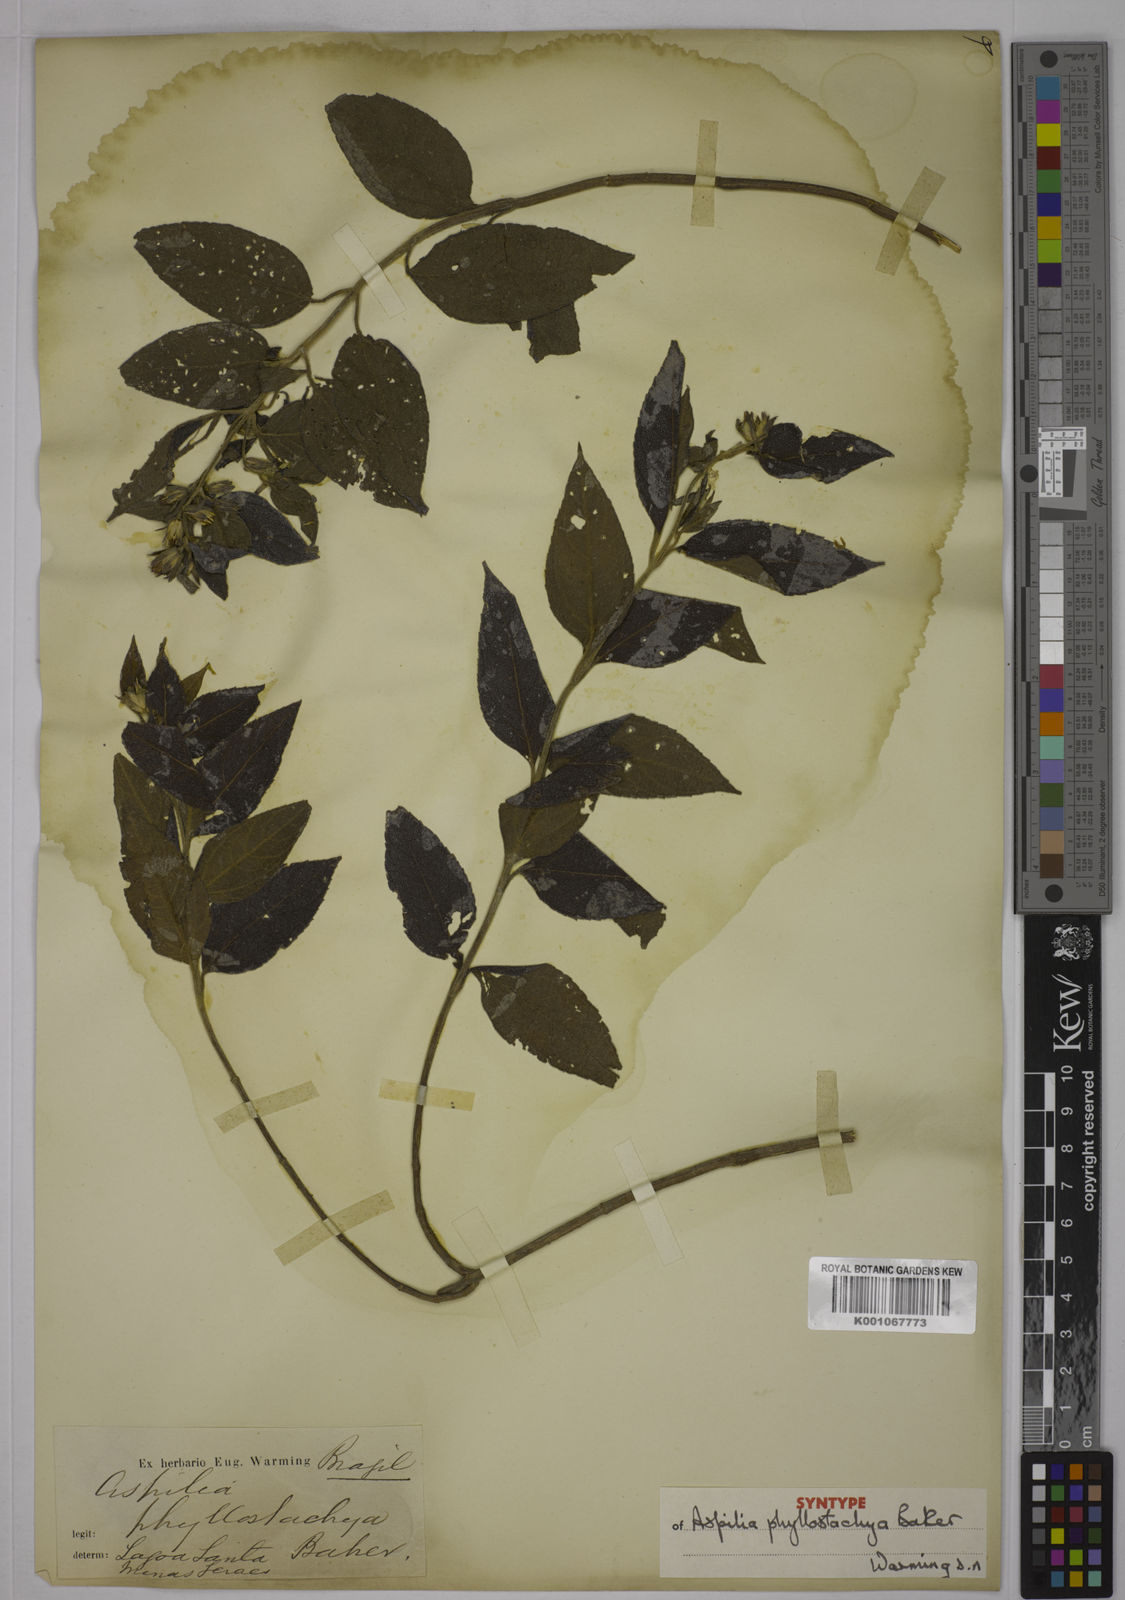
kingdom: Plantae
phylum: Tracheophyta
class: Magnoliopsida
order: Asterales
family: Asteraceae
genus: Wedelia
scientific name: Wedelia phyllostachya
